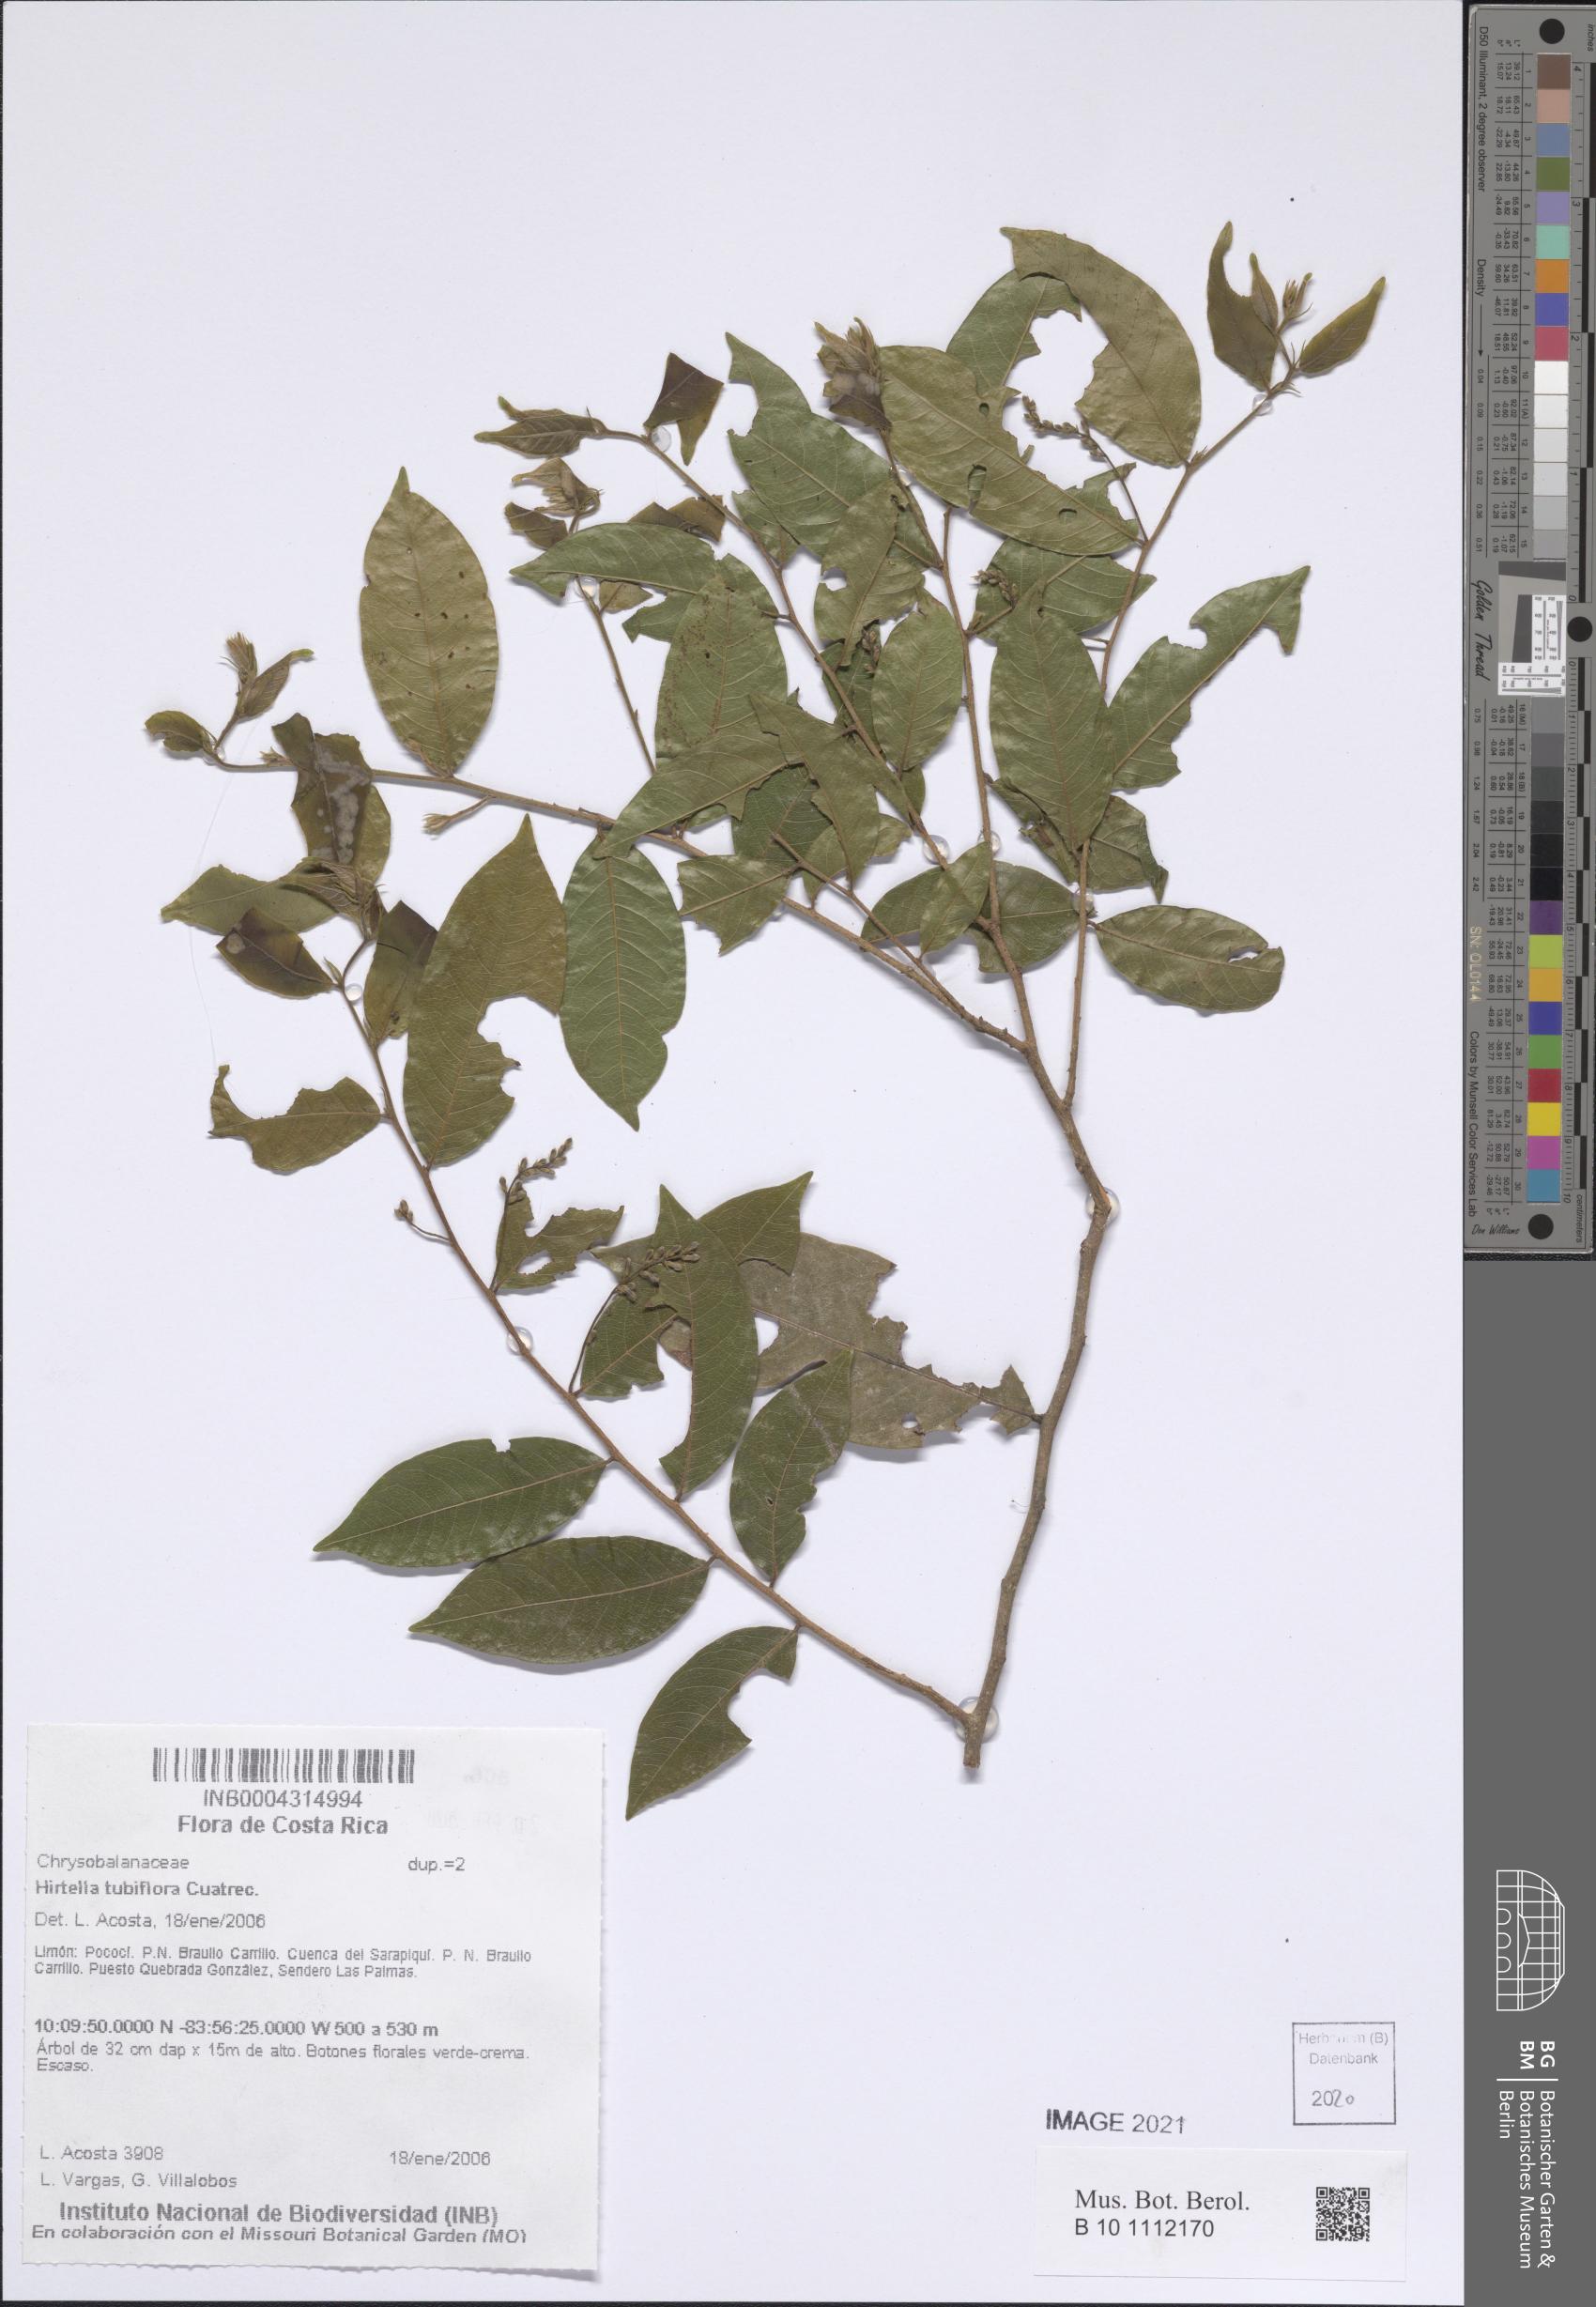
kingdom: Plantae
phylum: Tracheophyta
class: Magnoliopsida
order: Malpighiales
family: Chrysobalanaceae
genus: Hirtella
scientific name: Hirtella tubiflora
